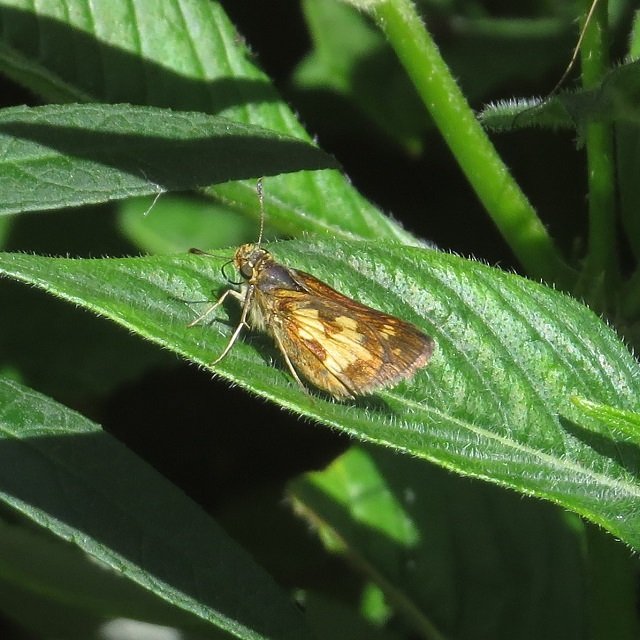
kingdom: Animalia
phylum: Arthropoda
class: Insecta
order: Lepidoptera
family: Hesperiidae
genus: Polites
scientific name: Polites coras
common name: Peck's Skipper
